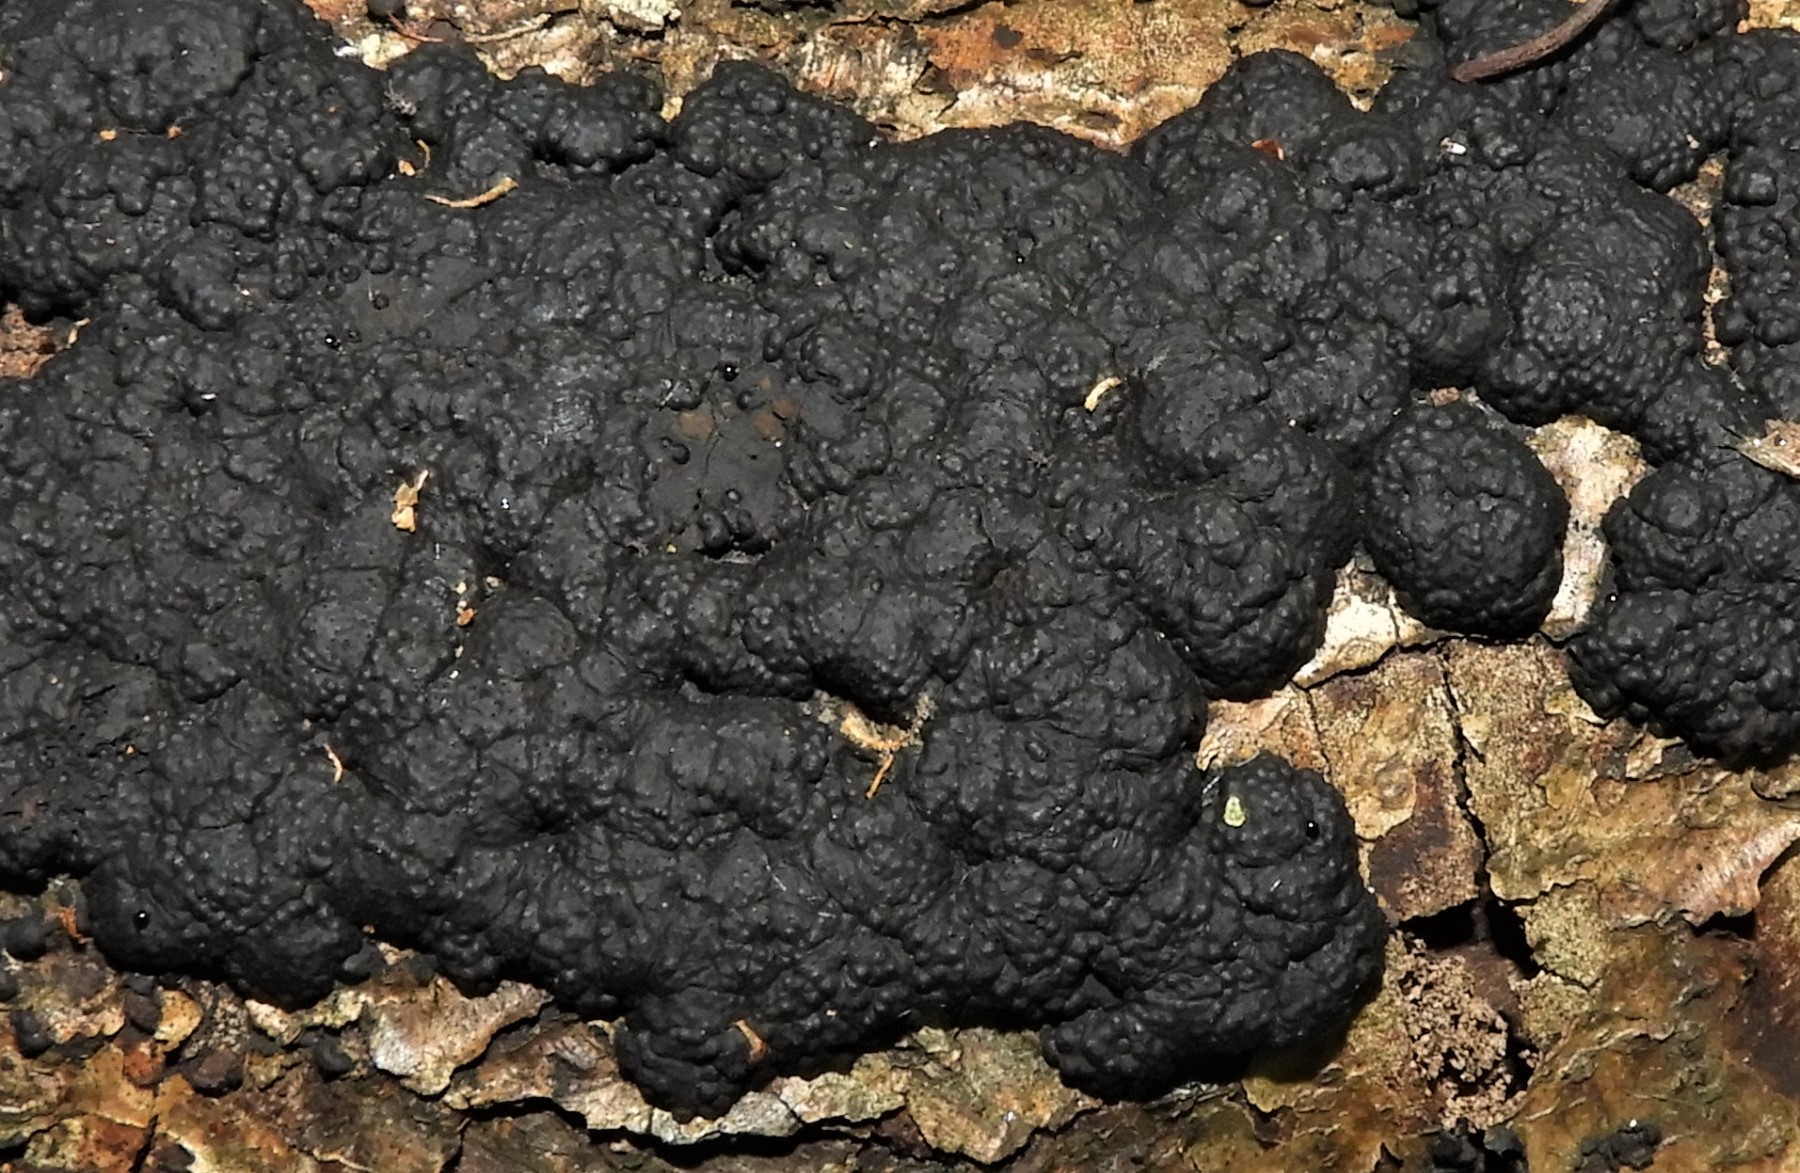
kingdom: Fungi
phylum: Ascomycota
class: Sordariomycetes
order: Xylariales
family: Hypoxylaceae
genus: Jackrogersella
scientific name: Jackrogersella cohaerens
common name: sammenflydende kulbær
